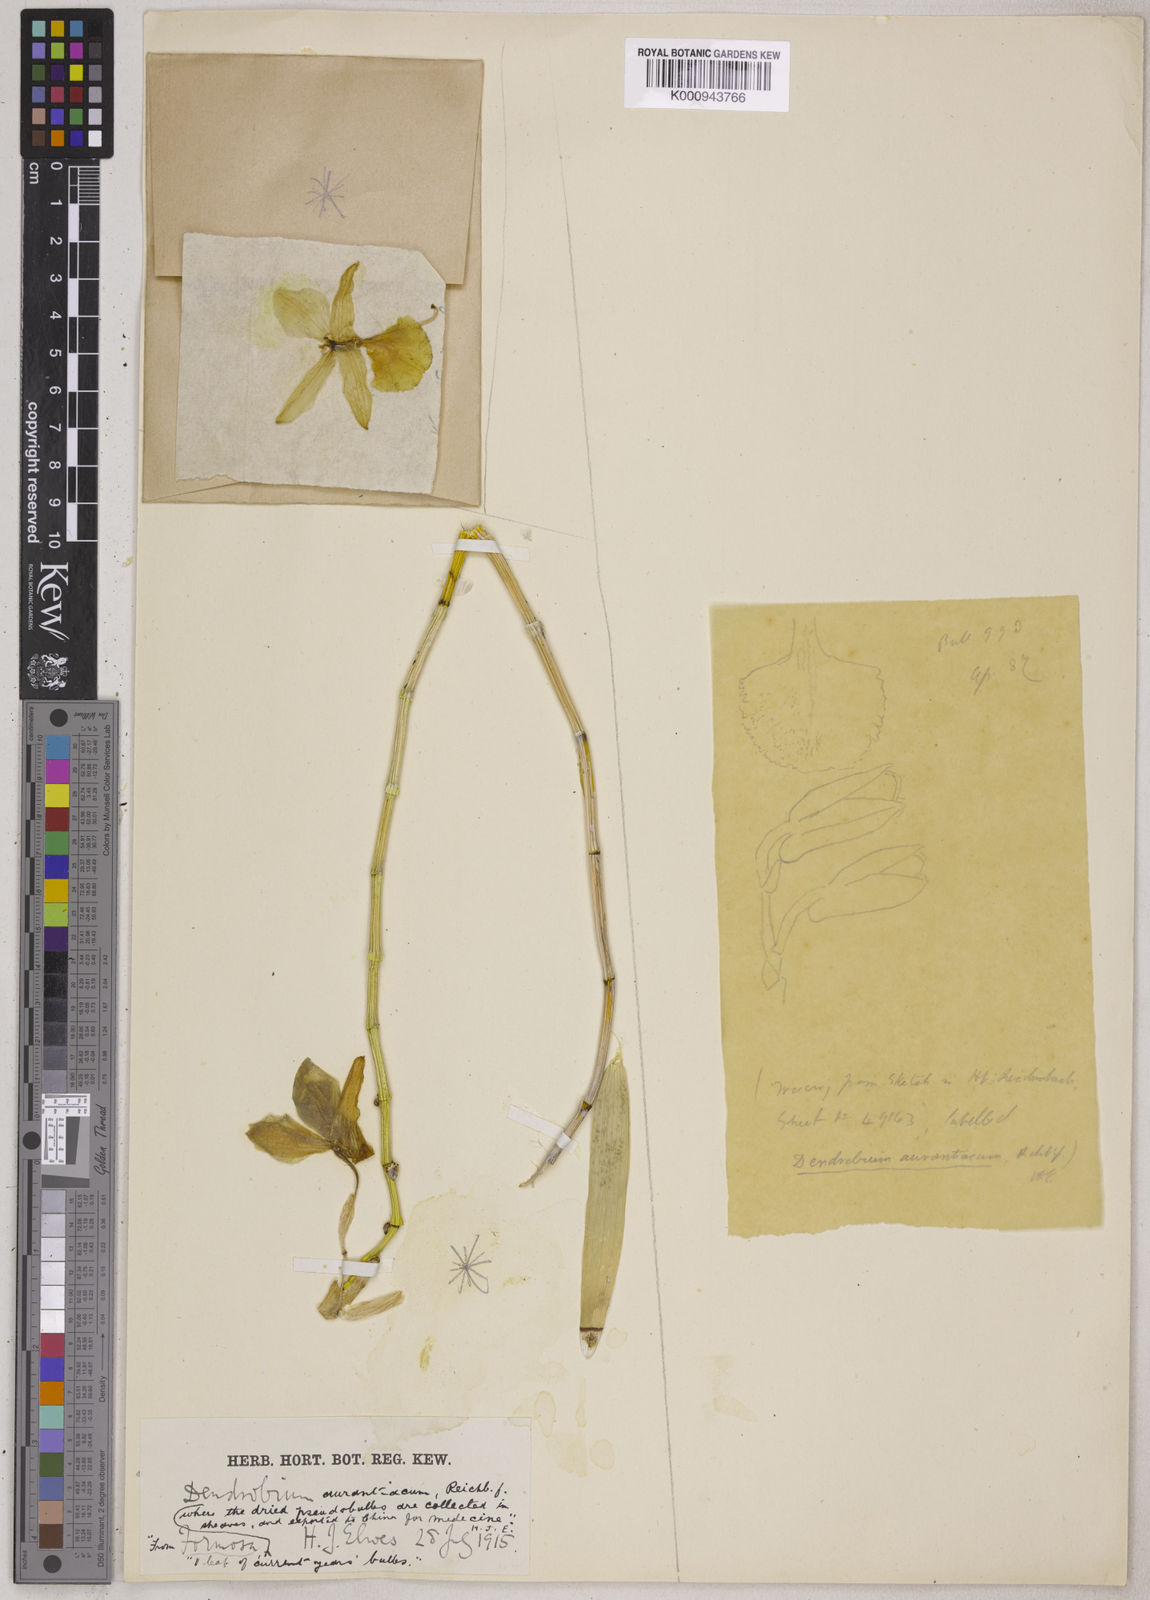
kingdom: Plantae
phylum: Tracheophyta
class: Liliopsida
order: Asparagales
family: Orchidaceae
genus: Dendrobium
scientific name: Dendrobium chryseum
